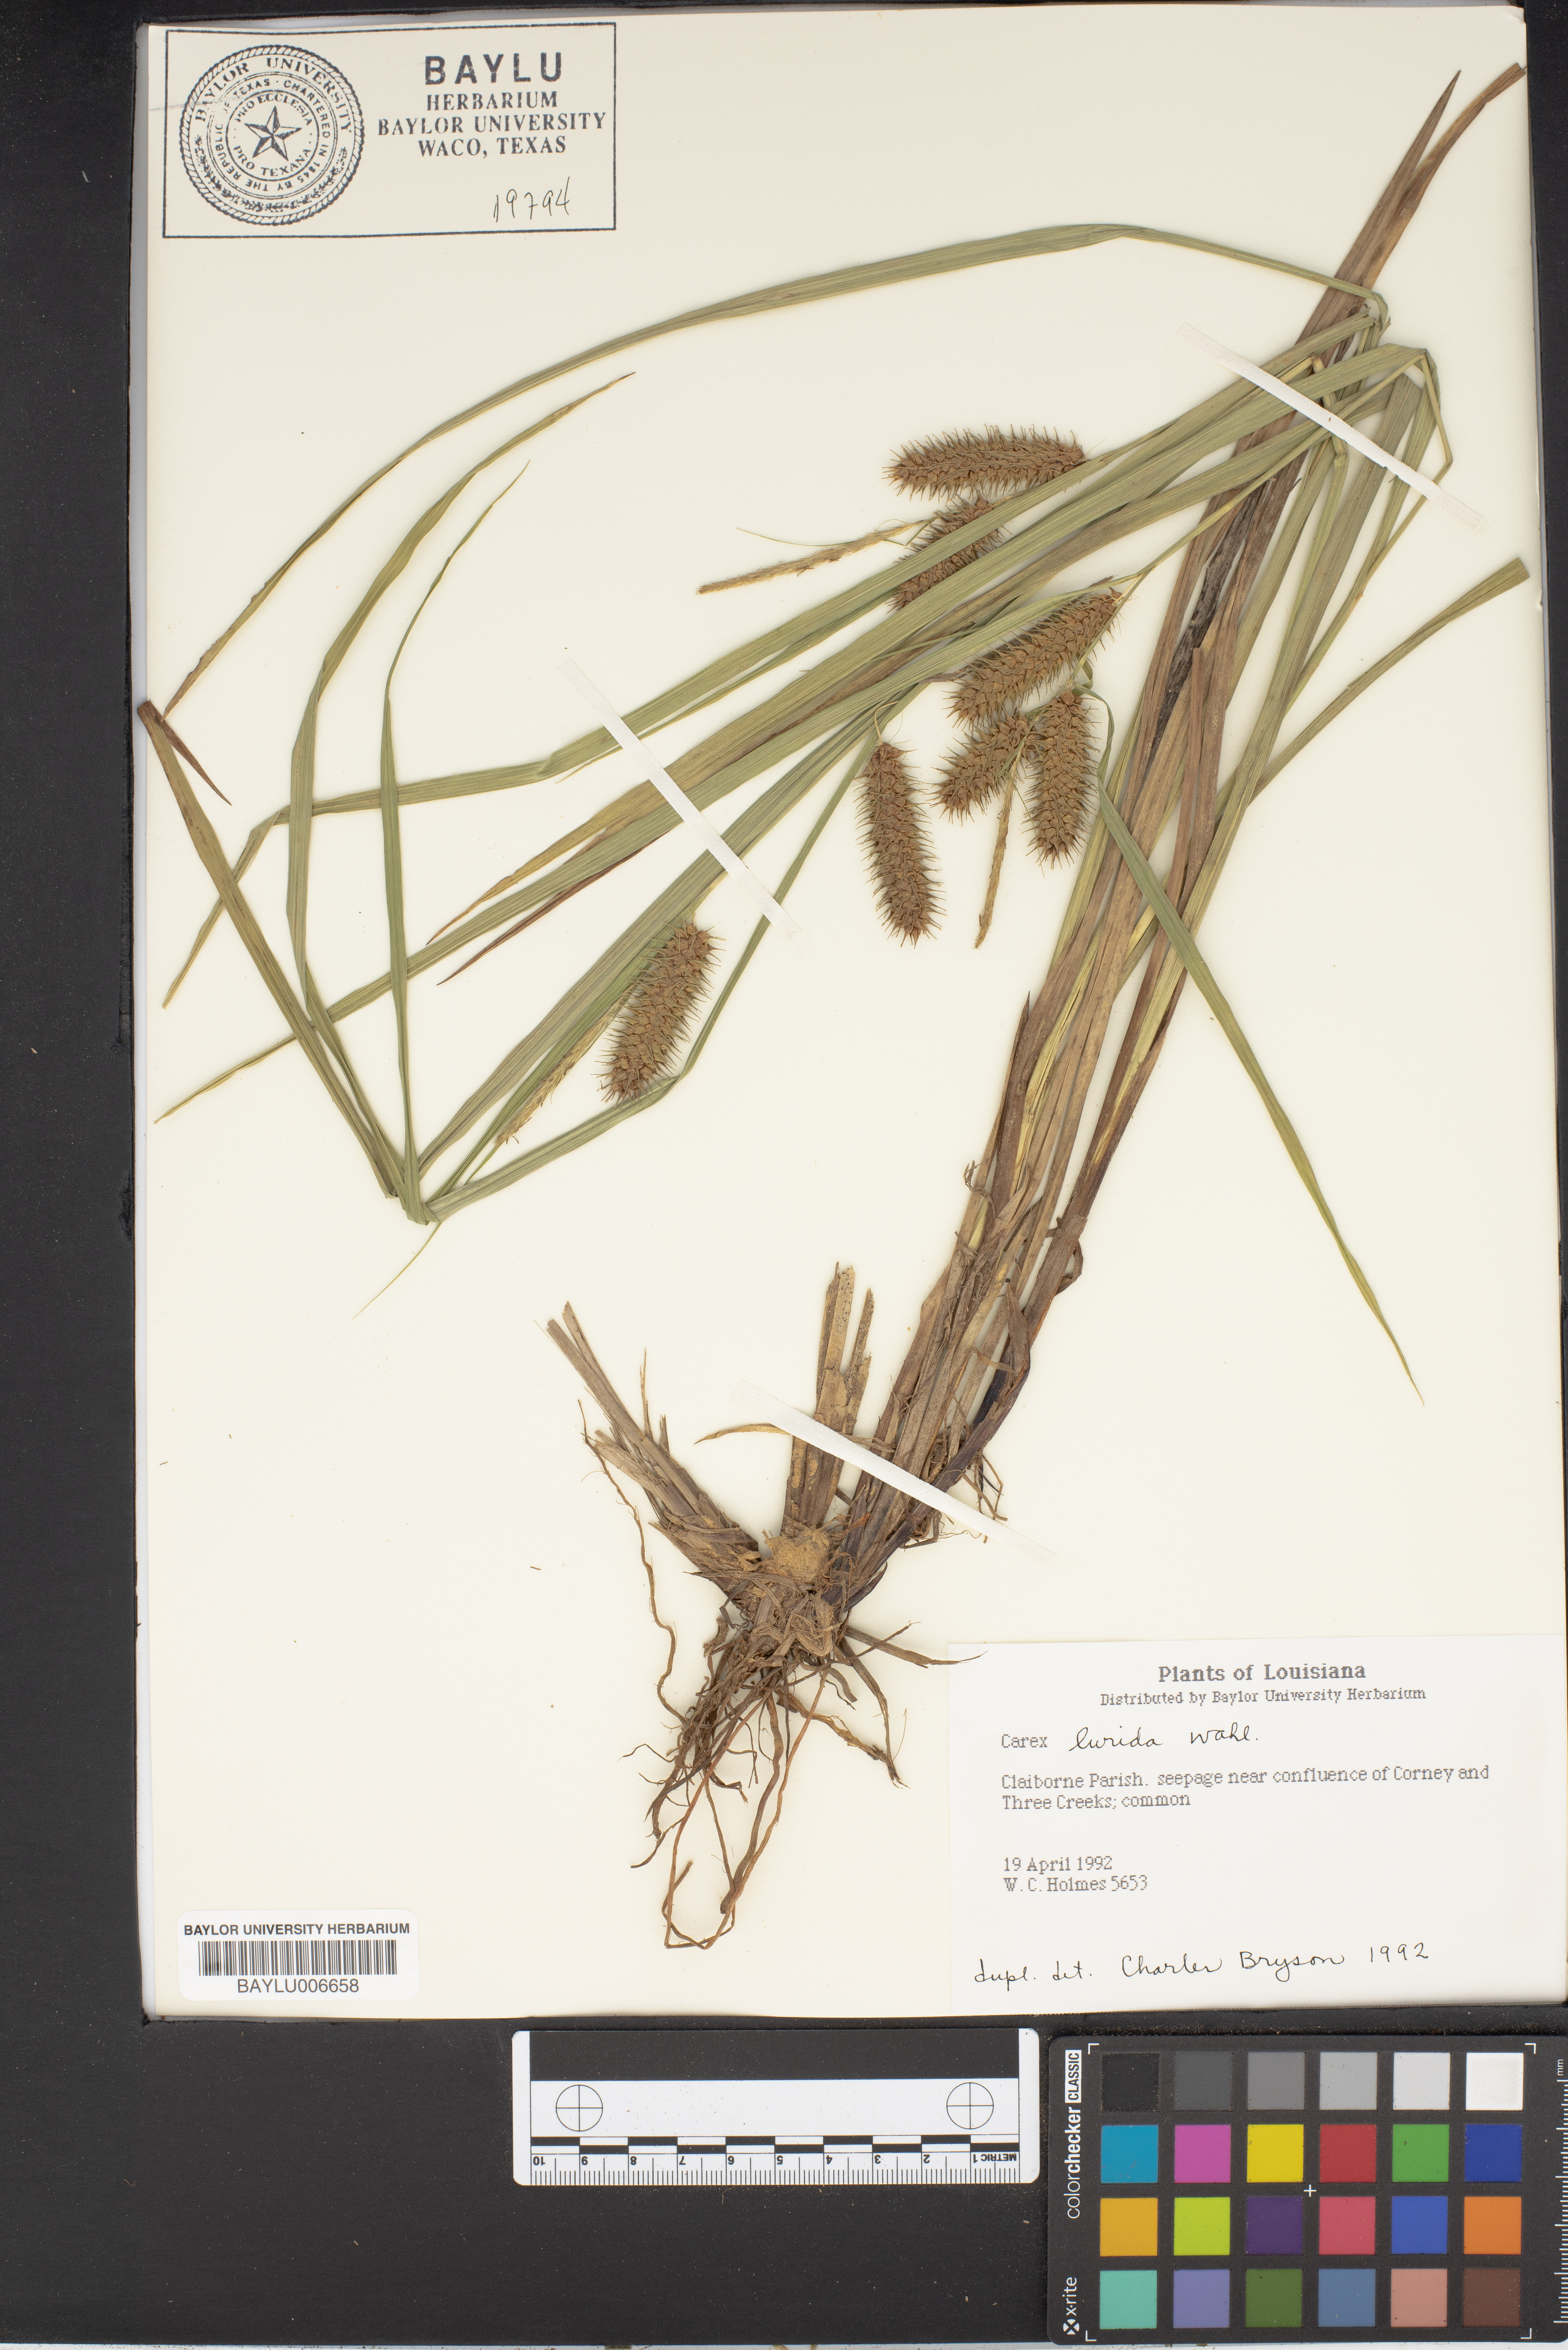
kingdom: Plantae
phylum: Tracheophyta
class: Liliopsida
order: Poales
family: Cyperaceae
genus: Carex
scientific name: Carex lurida
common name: Sallow sedge
